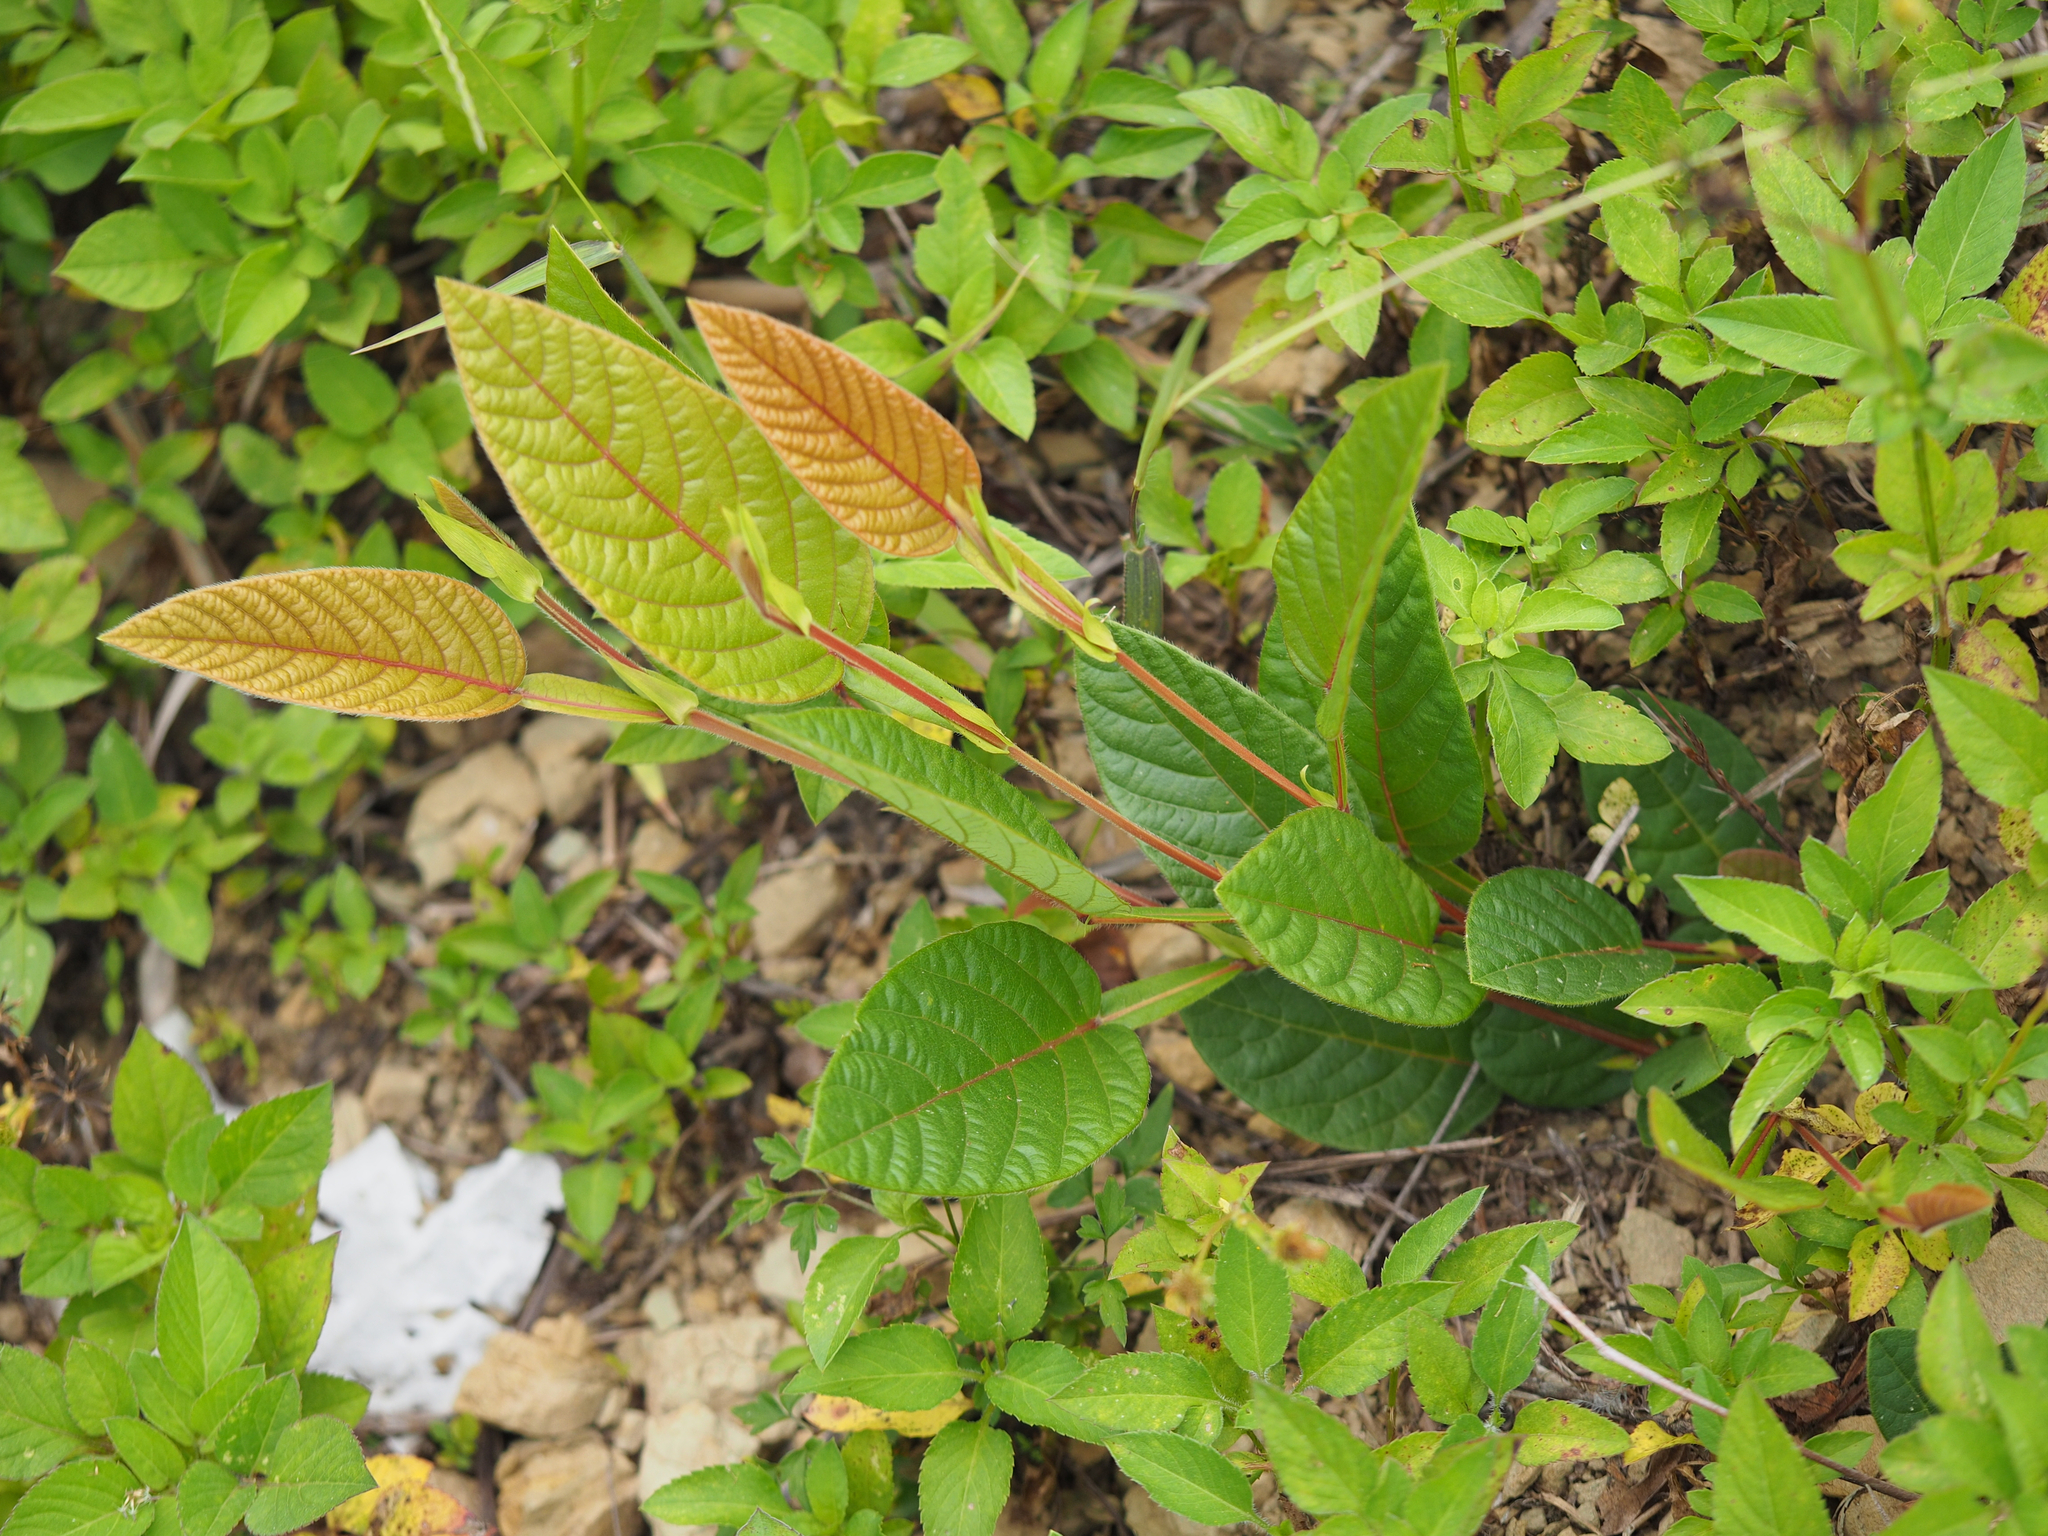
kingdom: Plantae
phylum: Tracheophyta
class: Magnoliopsida
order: Fabales
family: Fabaceae
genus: Tadehagi
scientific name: Tadehagi pseudotriquetrum
